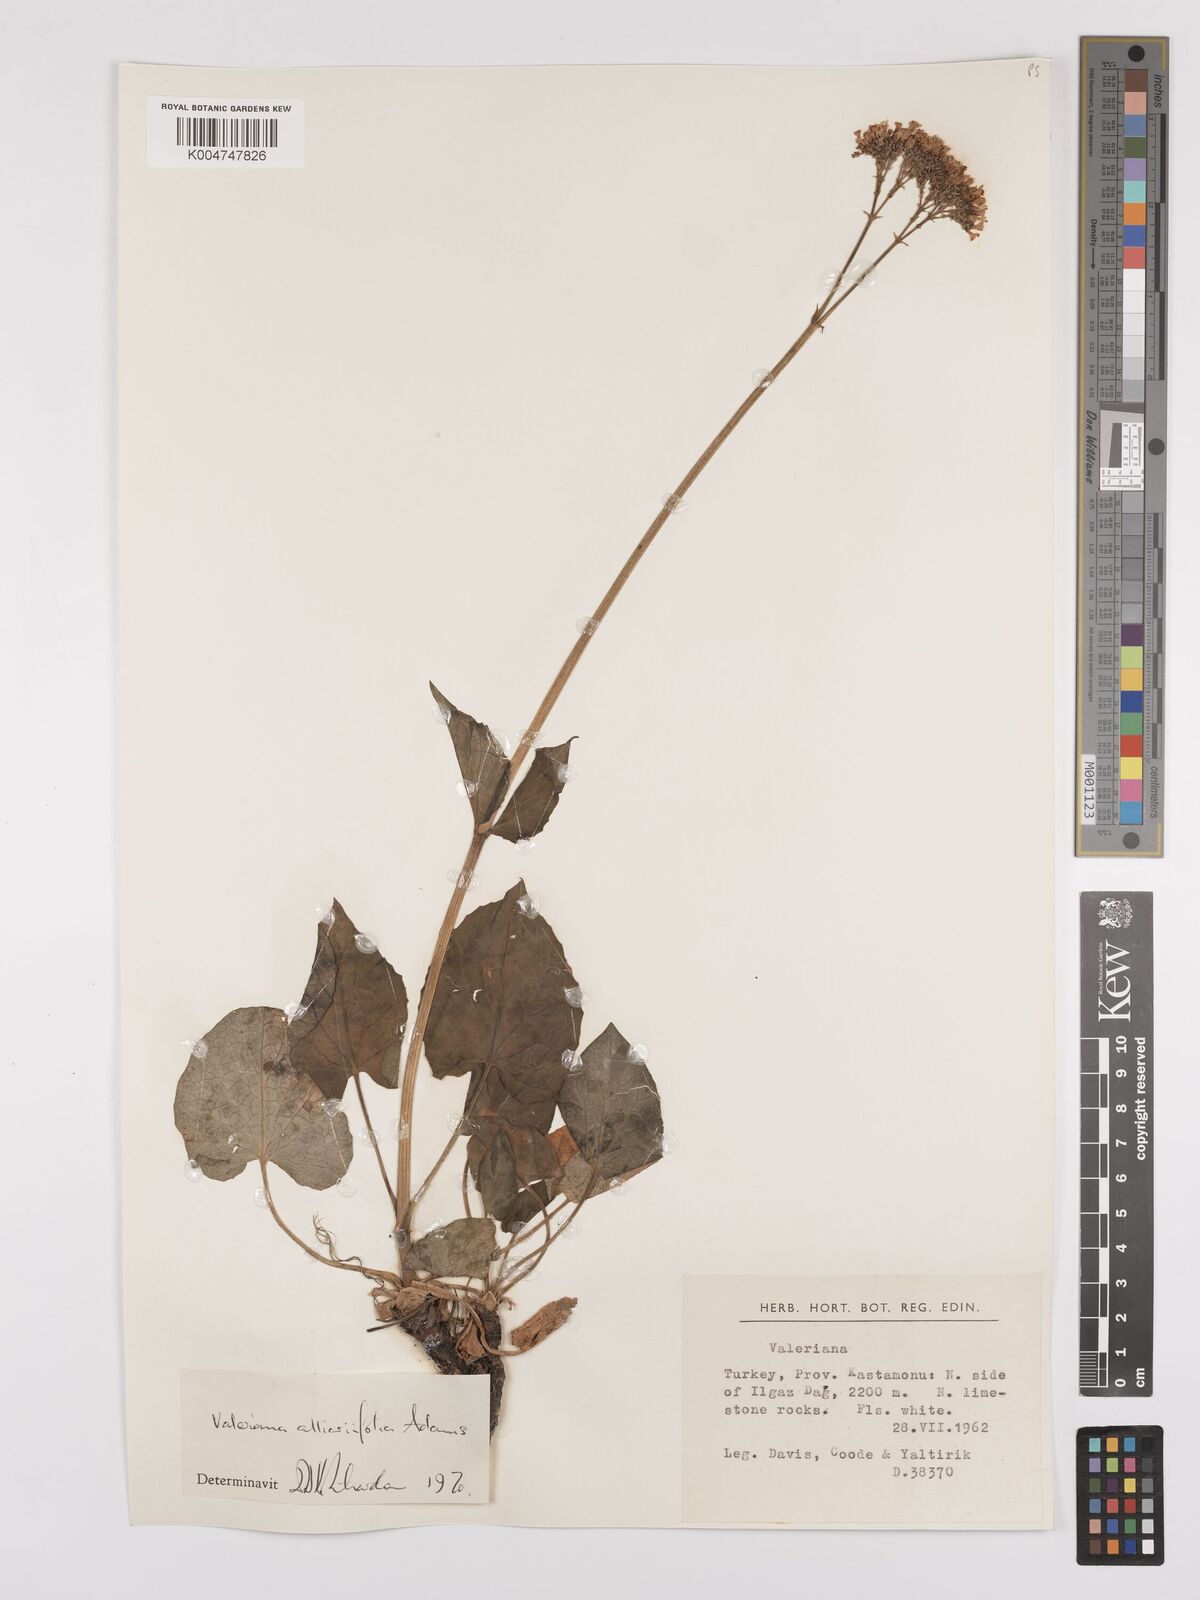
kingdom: Plantae
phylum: Tracheophyta
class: Magnoliopsida
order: Dipsacales
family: Caprifoliaceae
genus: Valeriana
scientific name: Valeriana
